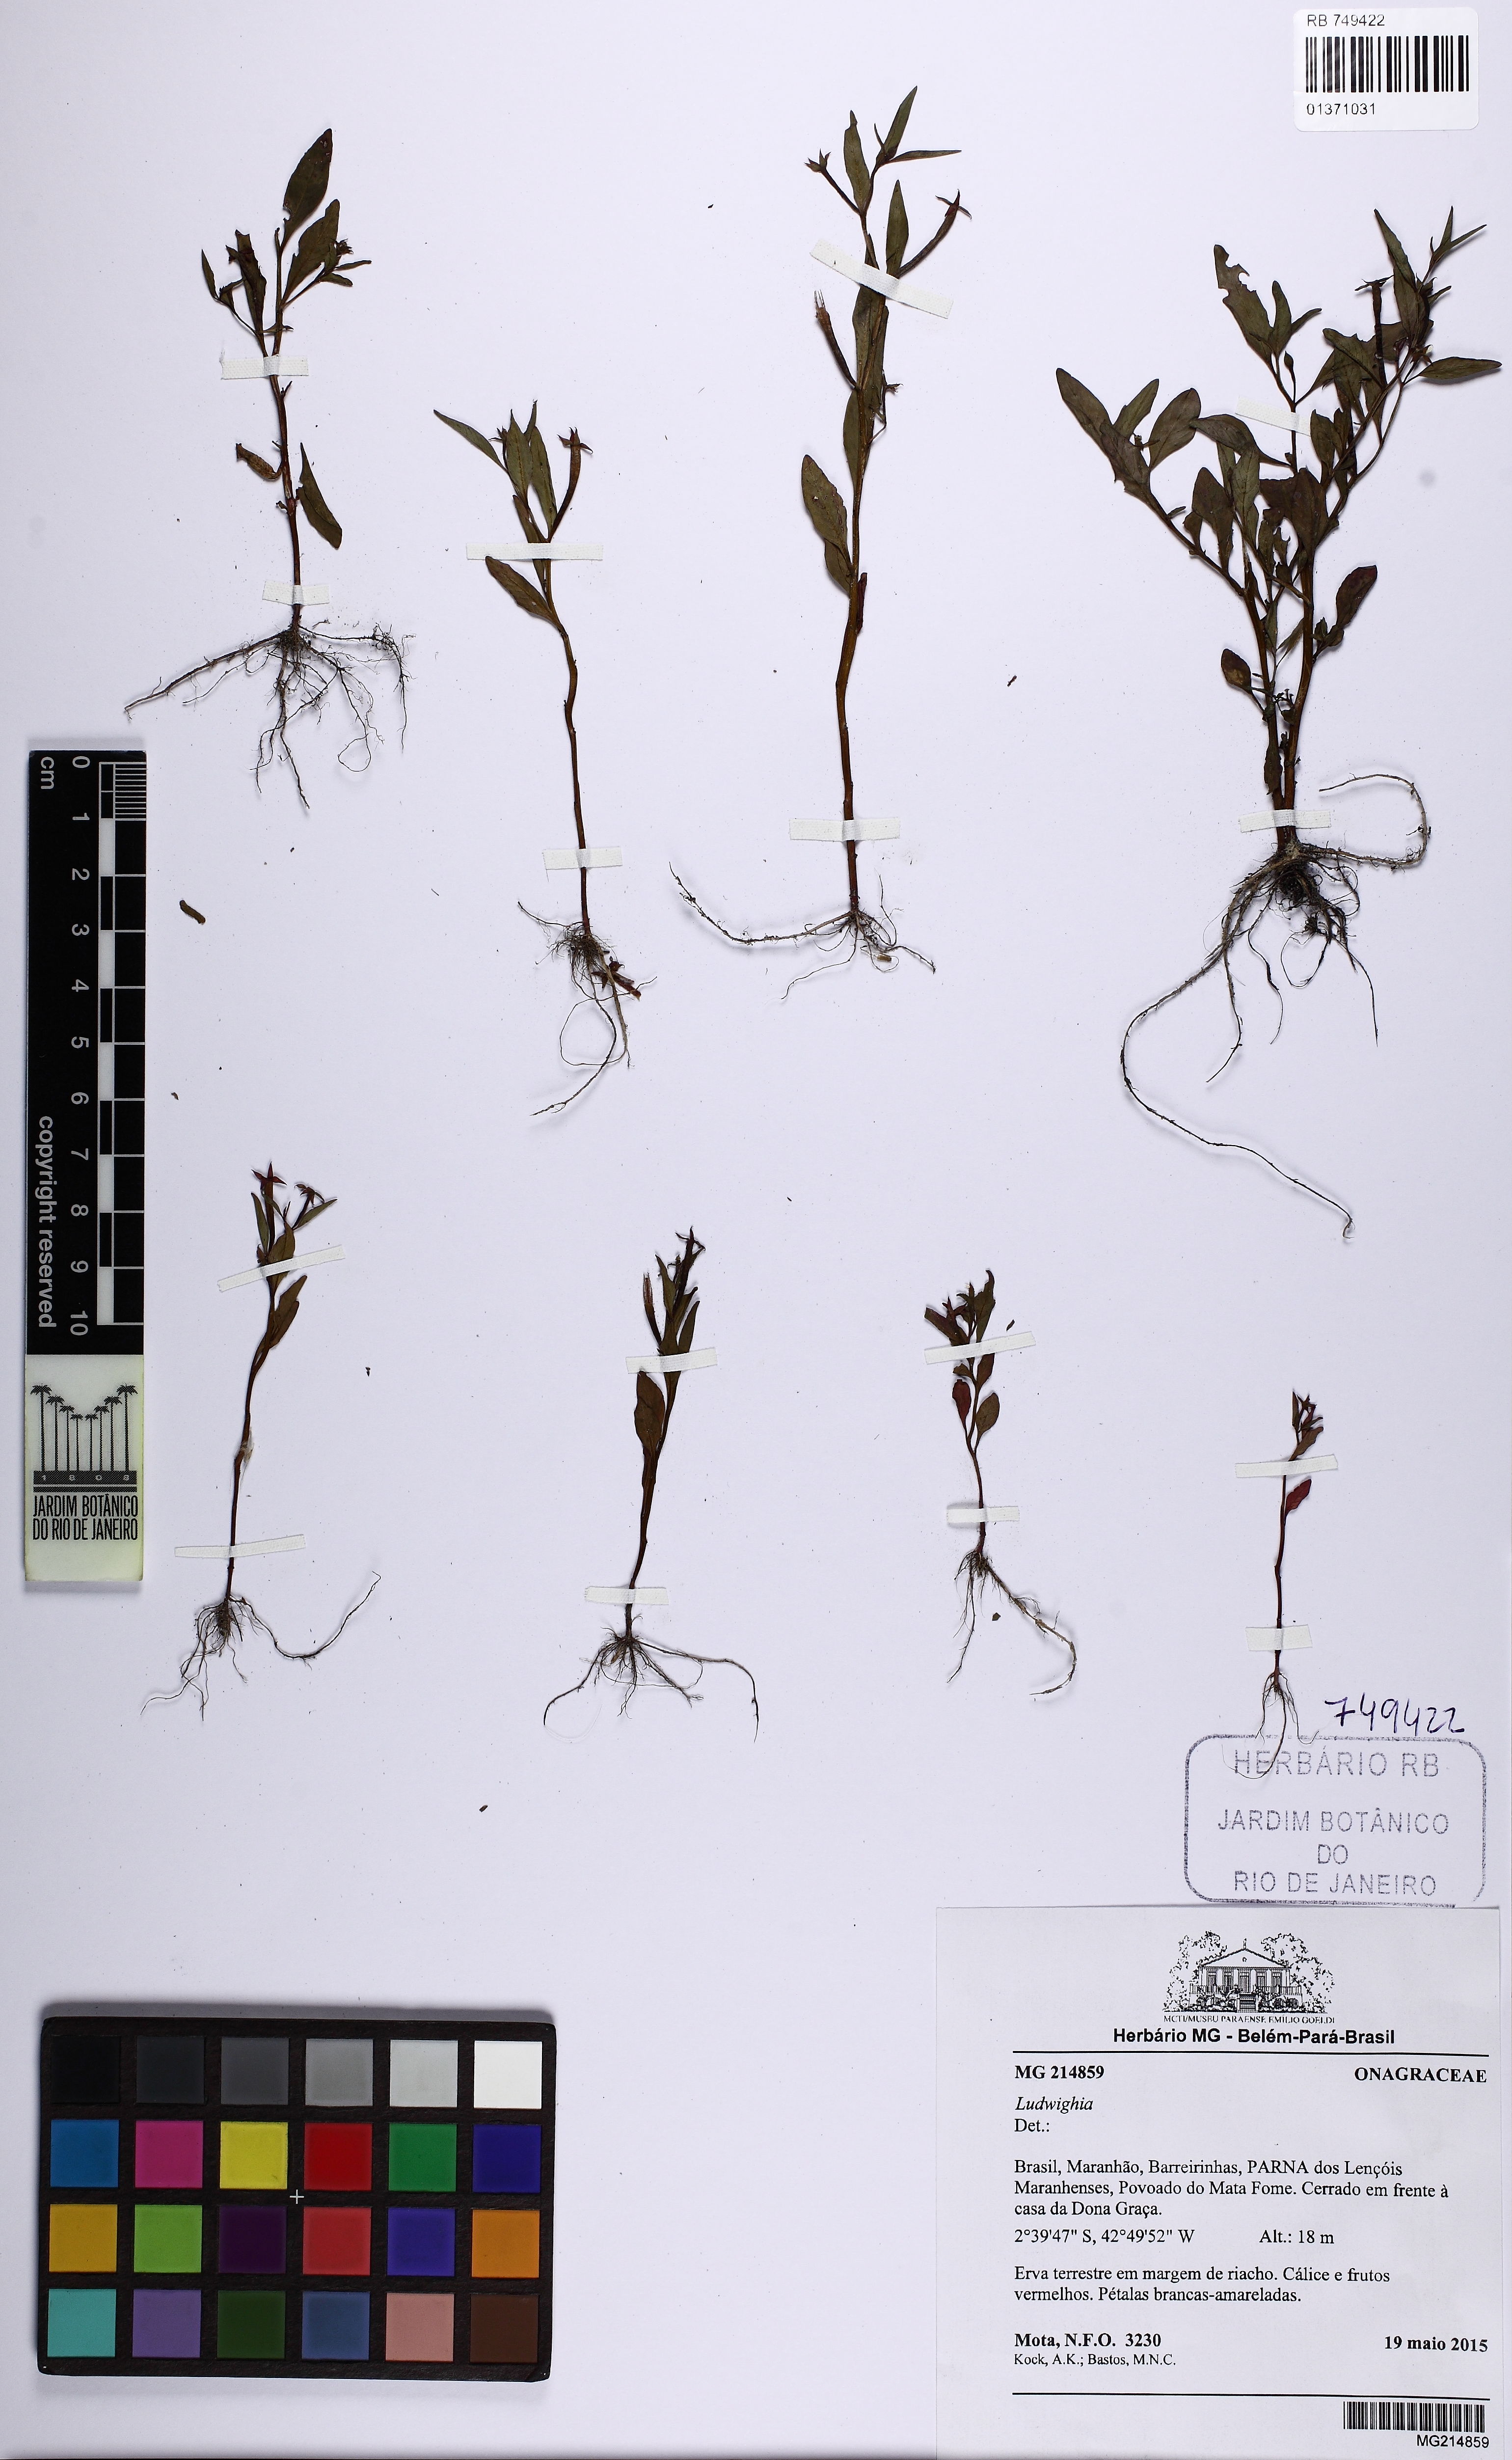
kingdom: Plantae
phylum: Tracheophyta
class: Magnoliopsida
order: Myrtales
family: Onagraceae
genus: Ludwigia
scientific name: Ludwigia
